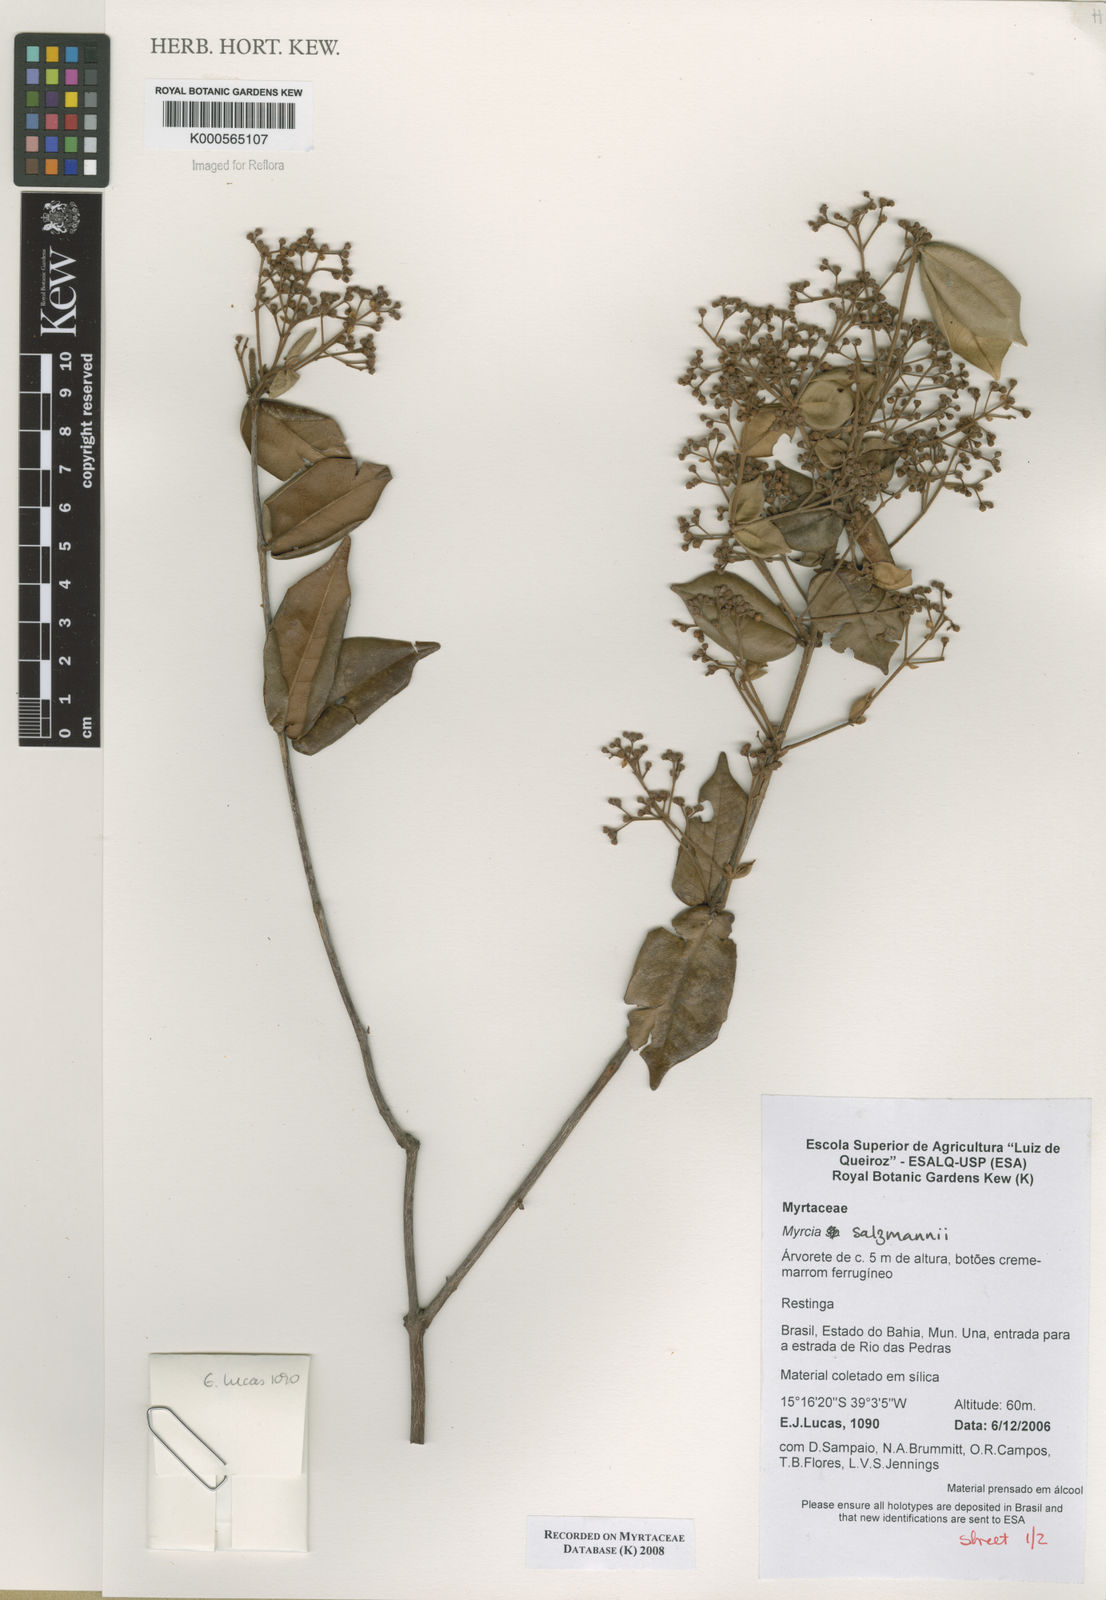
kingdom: Plantae
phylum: Tracheophyta
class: Magnoliopsida
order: Myrtales
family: Myrtaceae
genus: Myrcia
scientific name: Myrcia salzmannii
